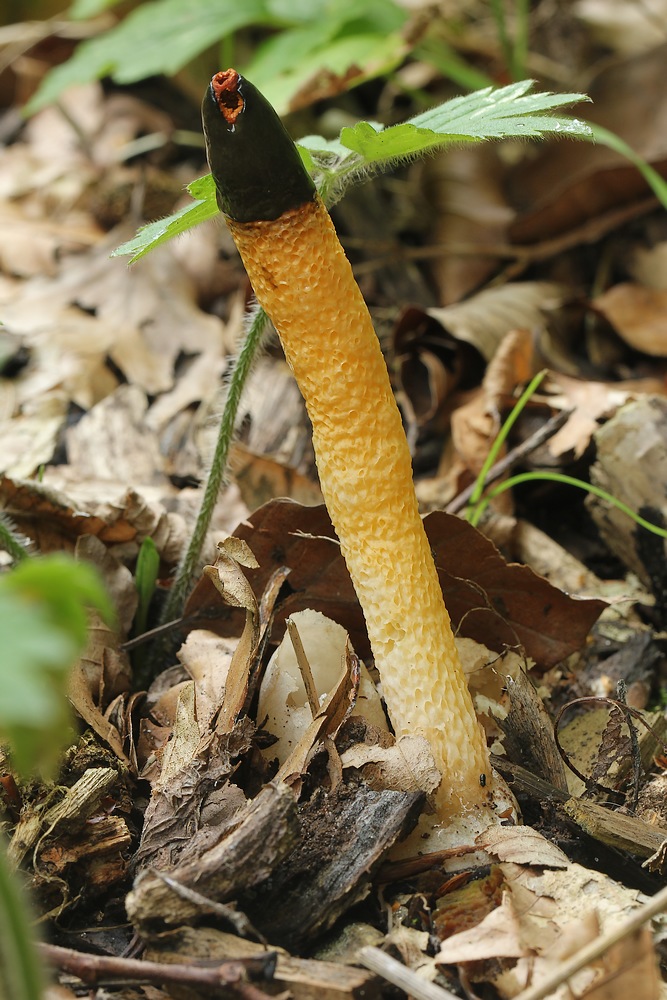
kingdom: Fungi
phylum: Basidiomycota
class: Agaricomycetes
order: Phallales
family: Phallaceae
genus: Mutinus
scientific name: Mutinus caninus
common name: hunde-stinksvamp
